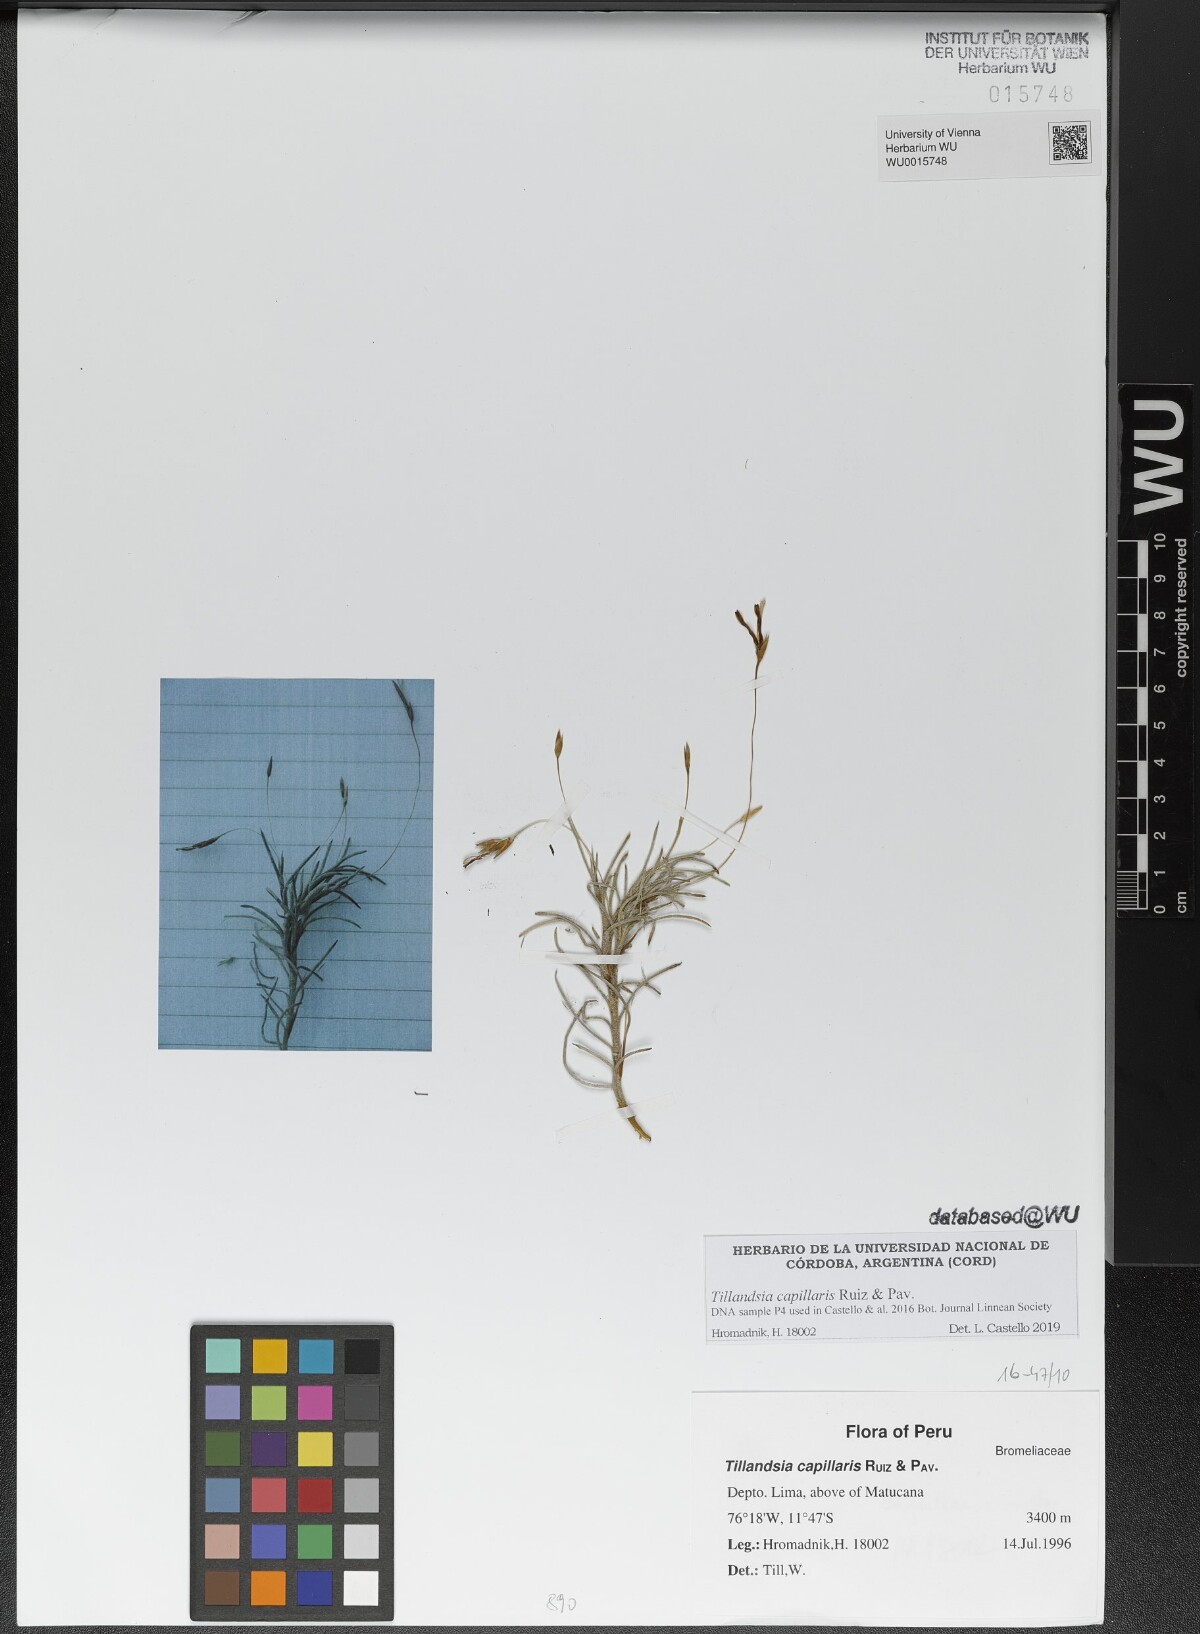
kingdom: Plantae
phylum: Tracheophyta
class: Liliopsida
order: Poales
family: Bromeliaceae
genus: Tillandsia
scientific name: Tillandsia capillaris
